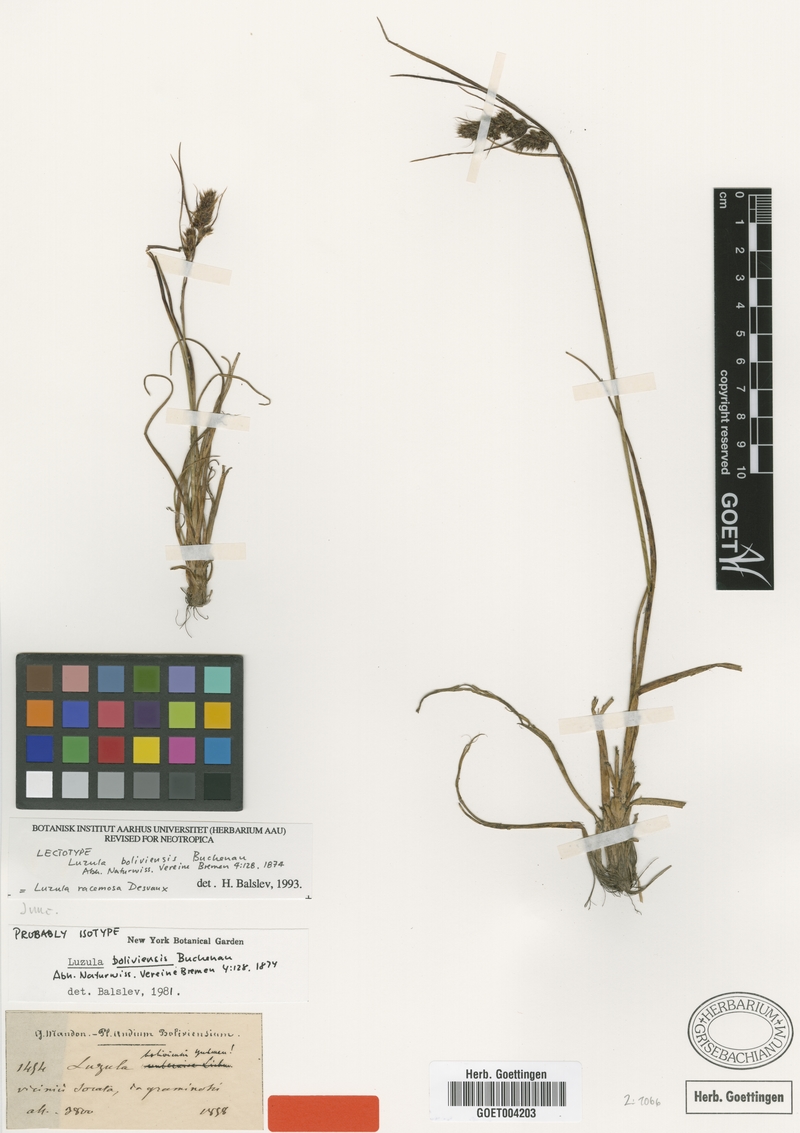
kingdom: Plantae
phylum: Tracheophyta
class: Liliopsida
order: Poales
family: Juncaceae
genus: Luzula
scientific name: Luzula racemosa
